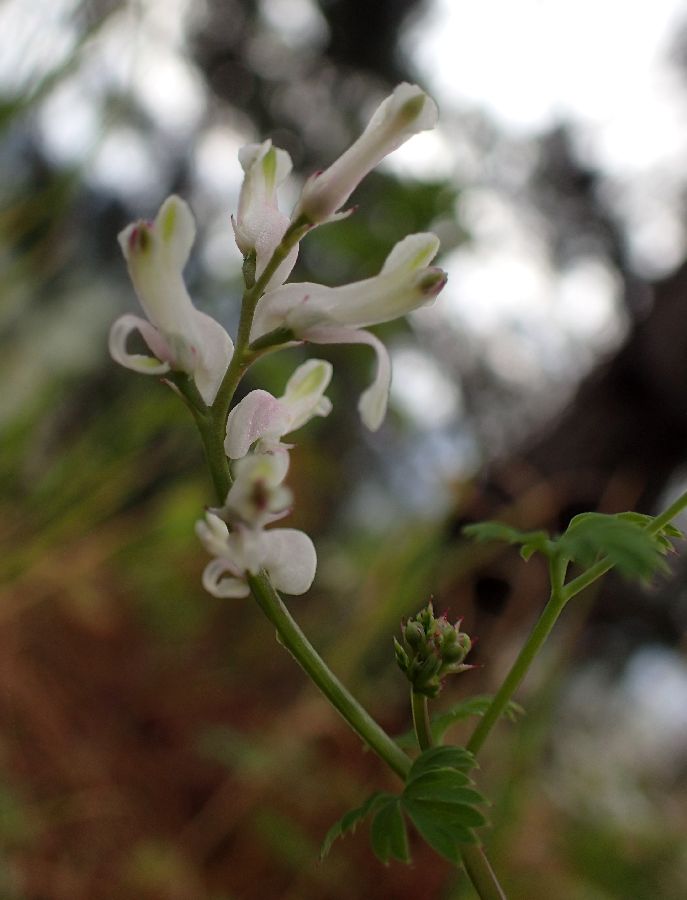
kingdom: Plantae
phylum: Tracheophyta
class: Magnoliopsida
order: Ranunculales
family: Papaveraceae
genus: Fumaria
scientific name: Fumaria
